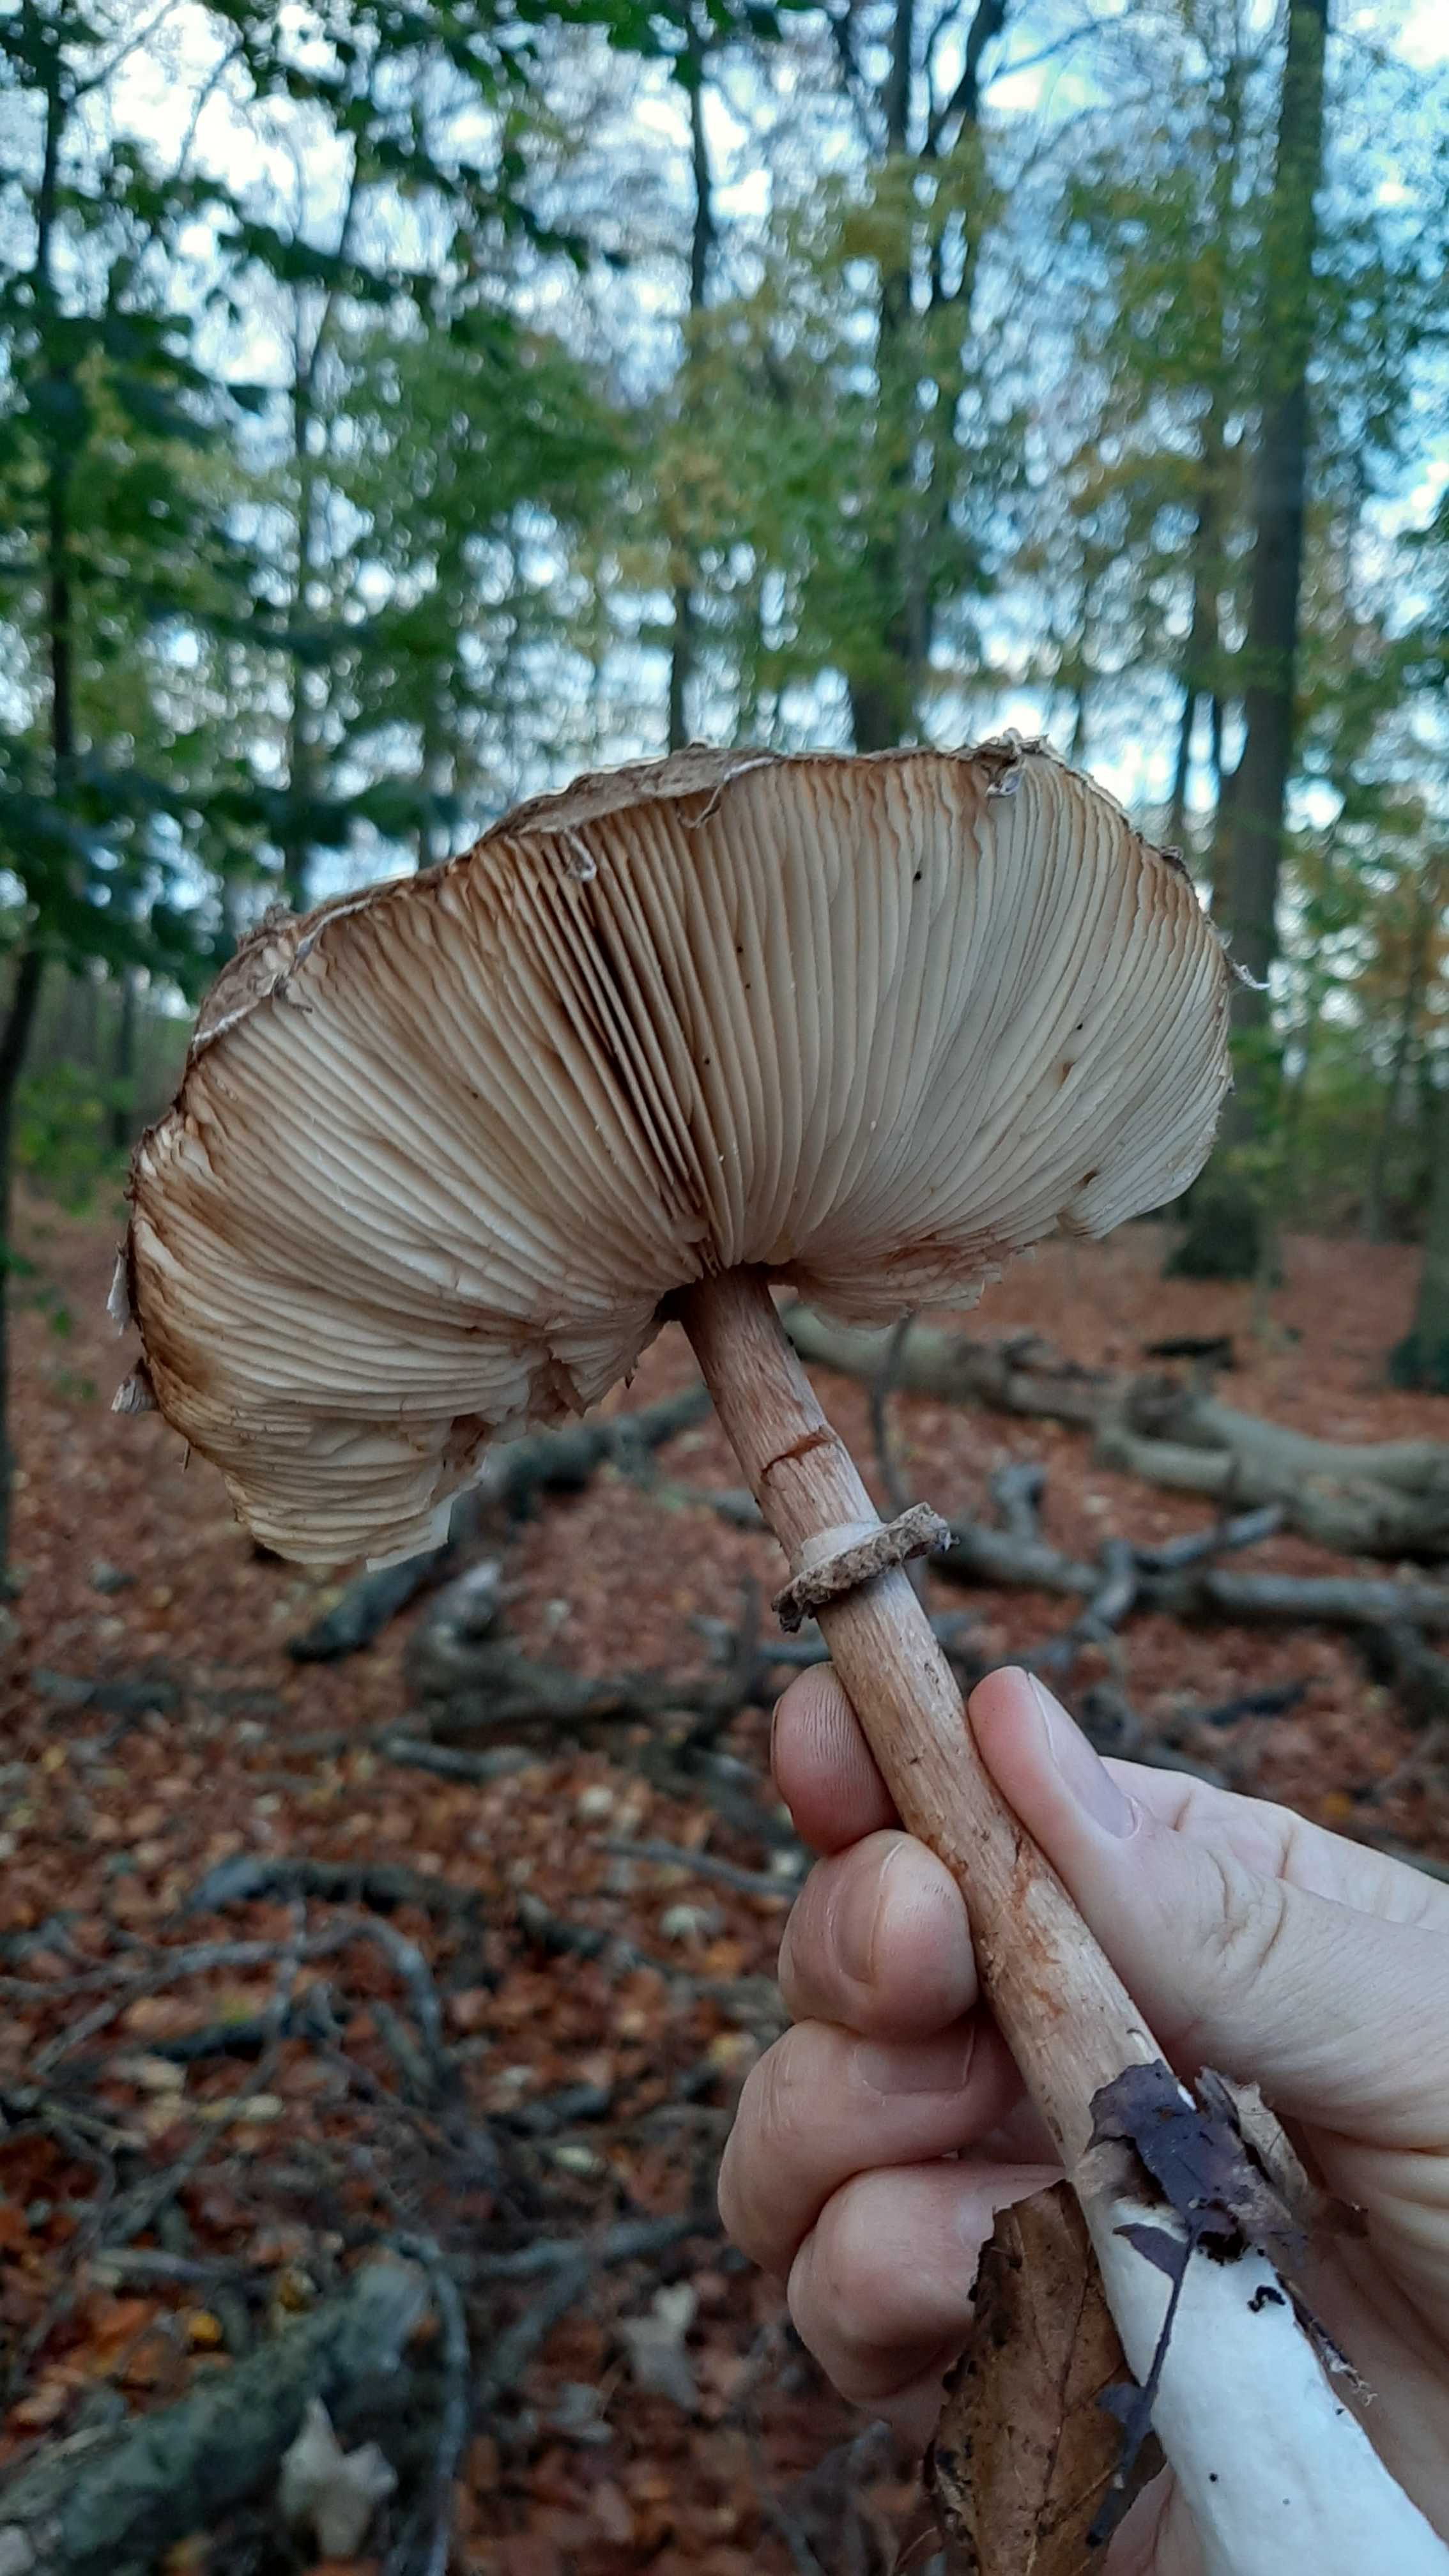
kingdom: Fungi
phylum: Basidiomycota
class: Agaricomycetes
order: Agaricales
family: Agaricaceae
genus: Chlorophyllum
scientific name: Chlorophyllum olivieri
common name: almindelig rabarberhat
